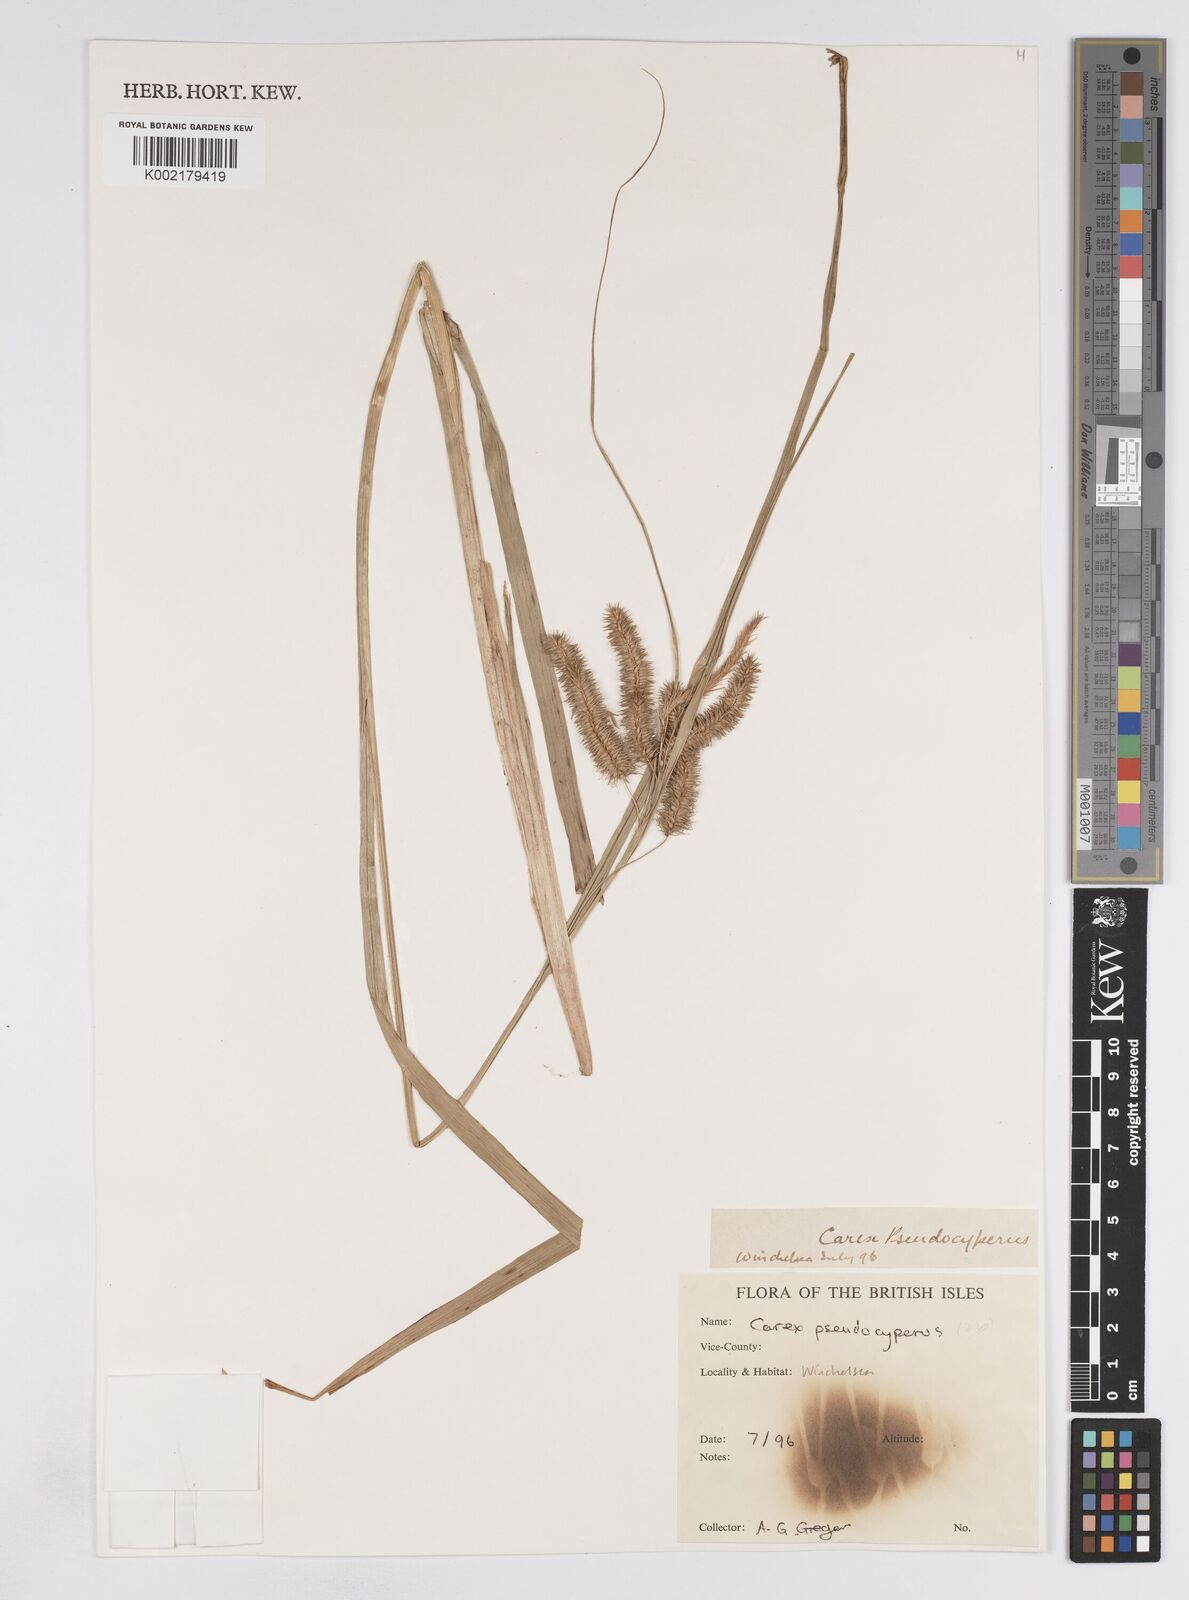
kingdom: Plantae
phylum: Tracheophyta
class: Liliopsida
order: Poales
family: Cyperaceae
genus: Carex
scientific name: Carex pseudocyperus
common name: Cyperus sedge
